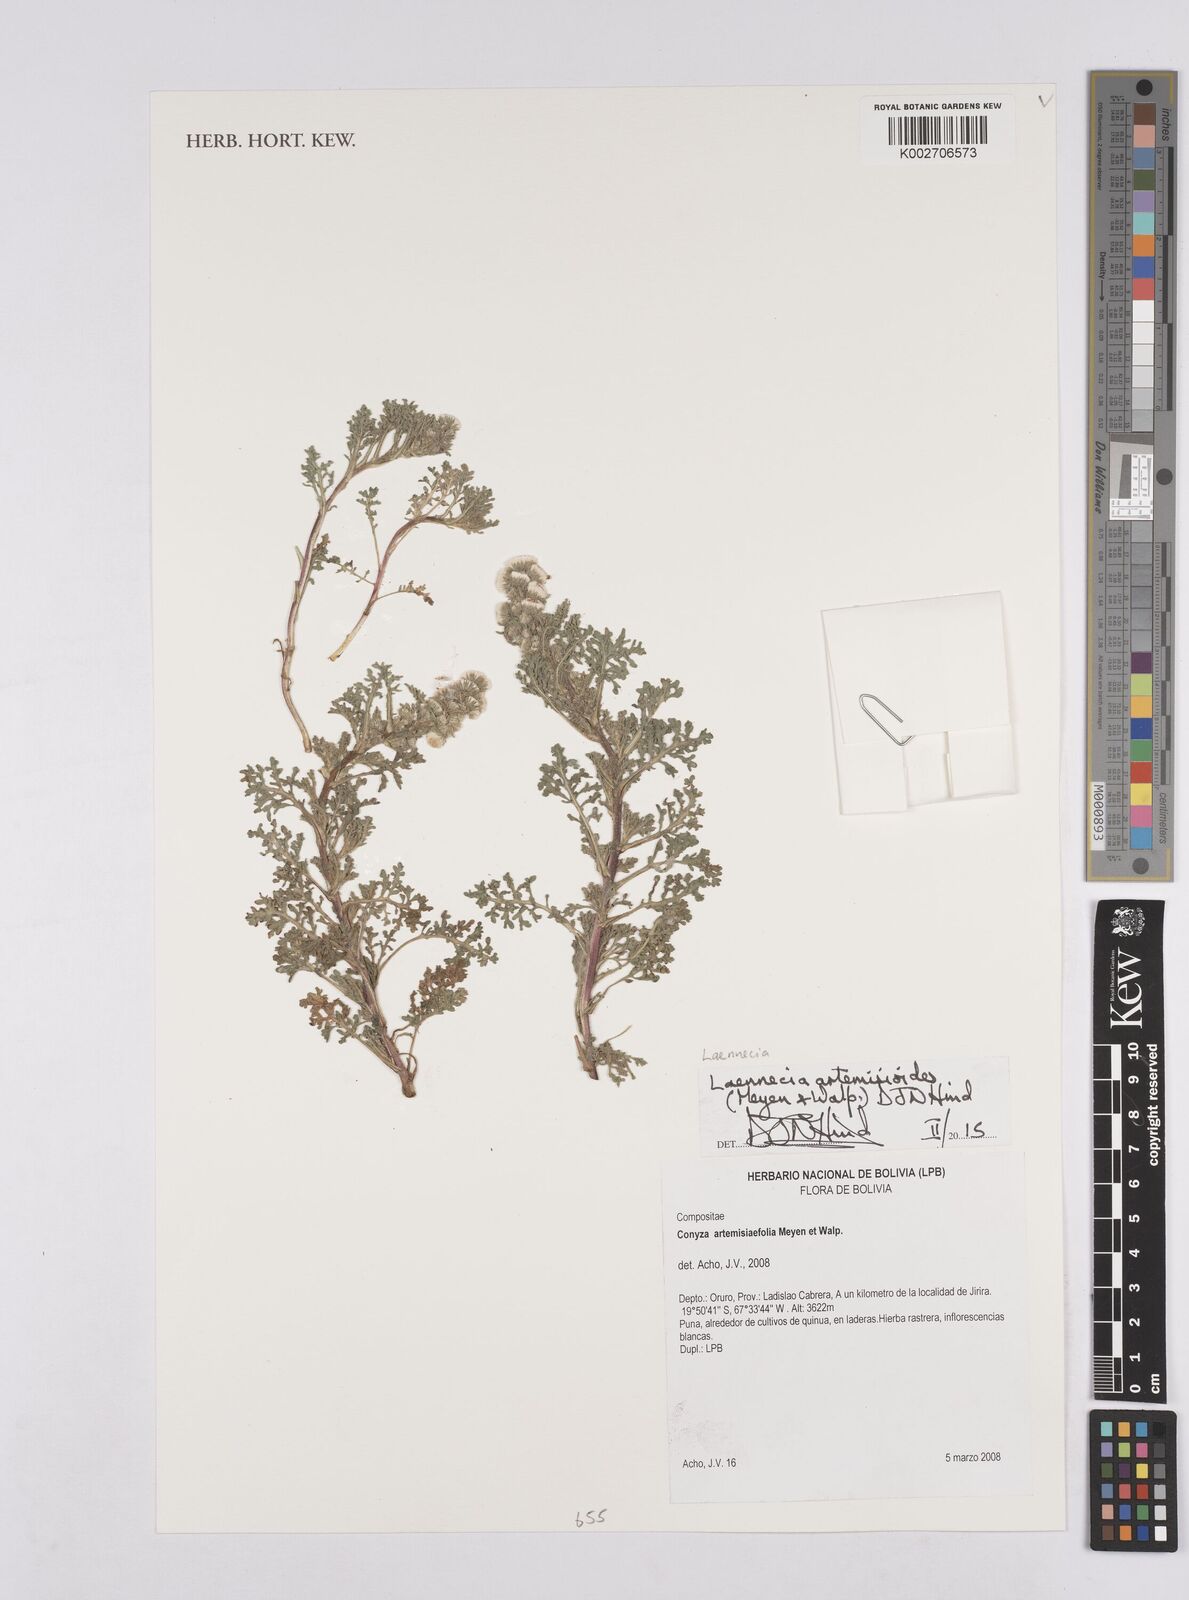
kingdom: Plantae
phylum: Tracheophyta
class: Magnoliopsida
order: Asterales
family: Asteraceae
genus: Laennecia
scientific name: Laennecia artemisiifolia
